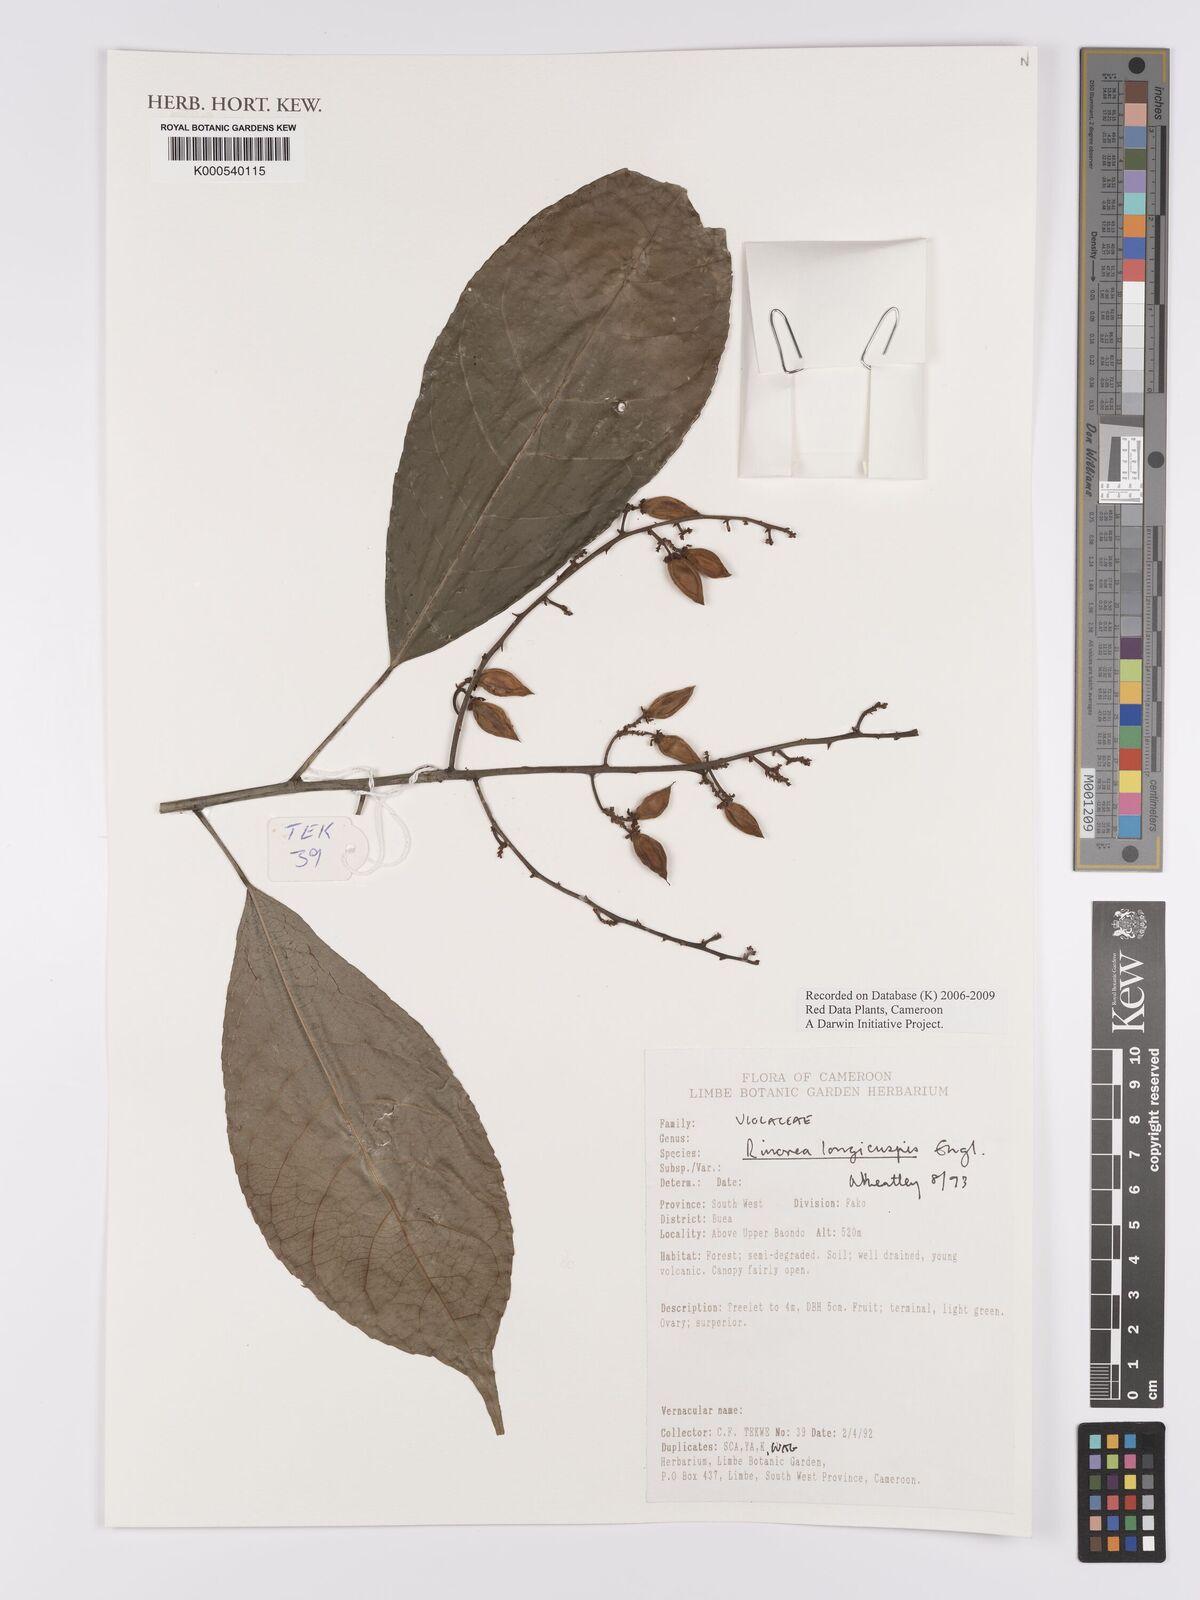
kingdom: Plantae
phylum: Tracheophyta
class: Magnoliopsida
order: Malpighiales
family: Violaceae
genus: Rinorea
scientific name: Rinorea welwitschii
